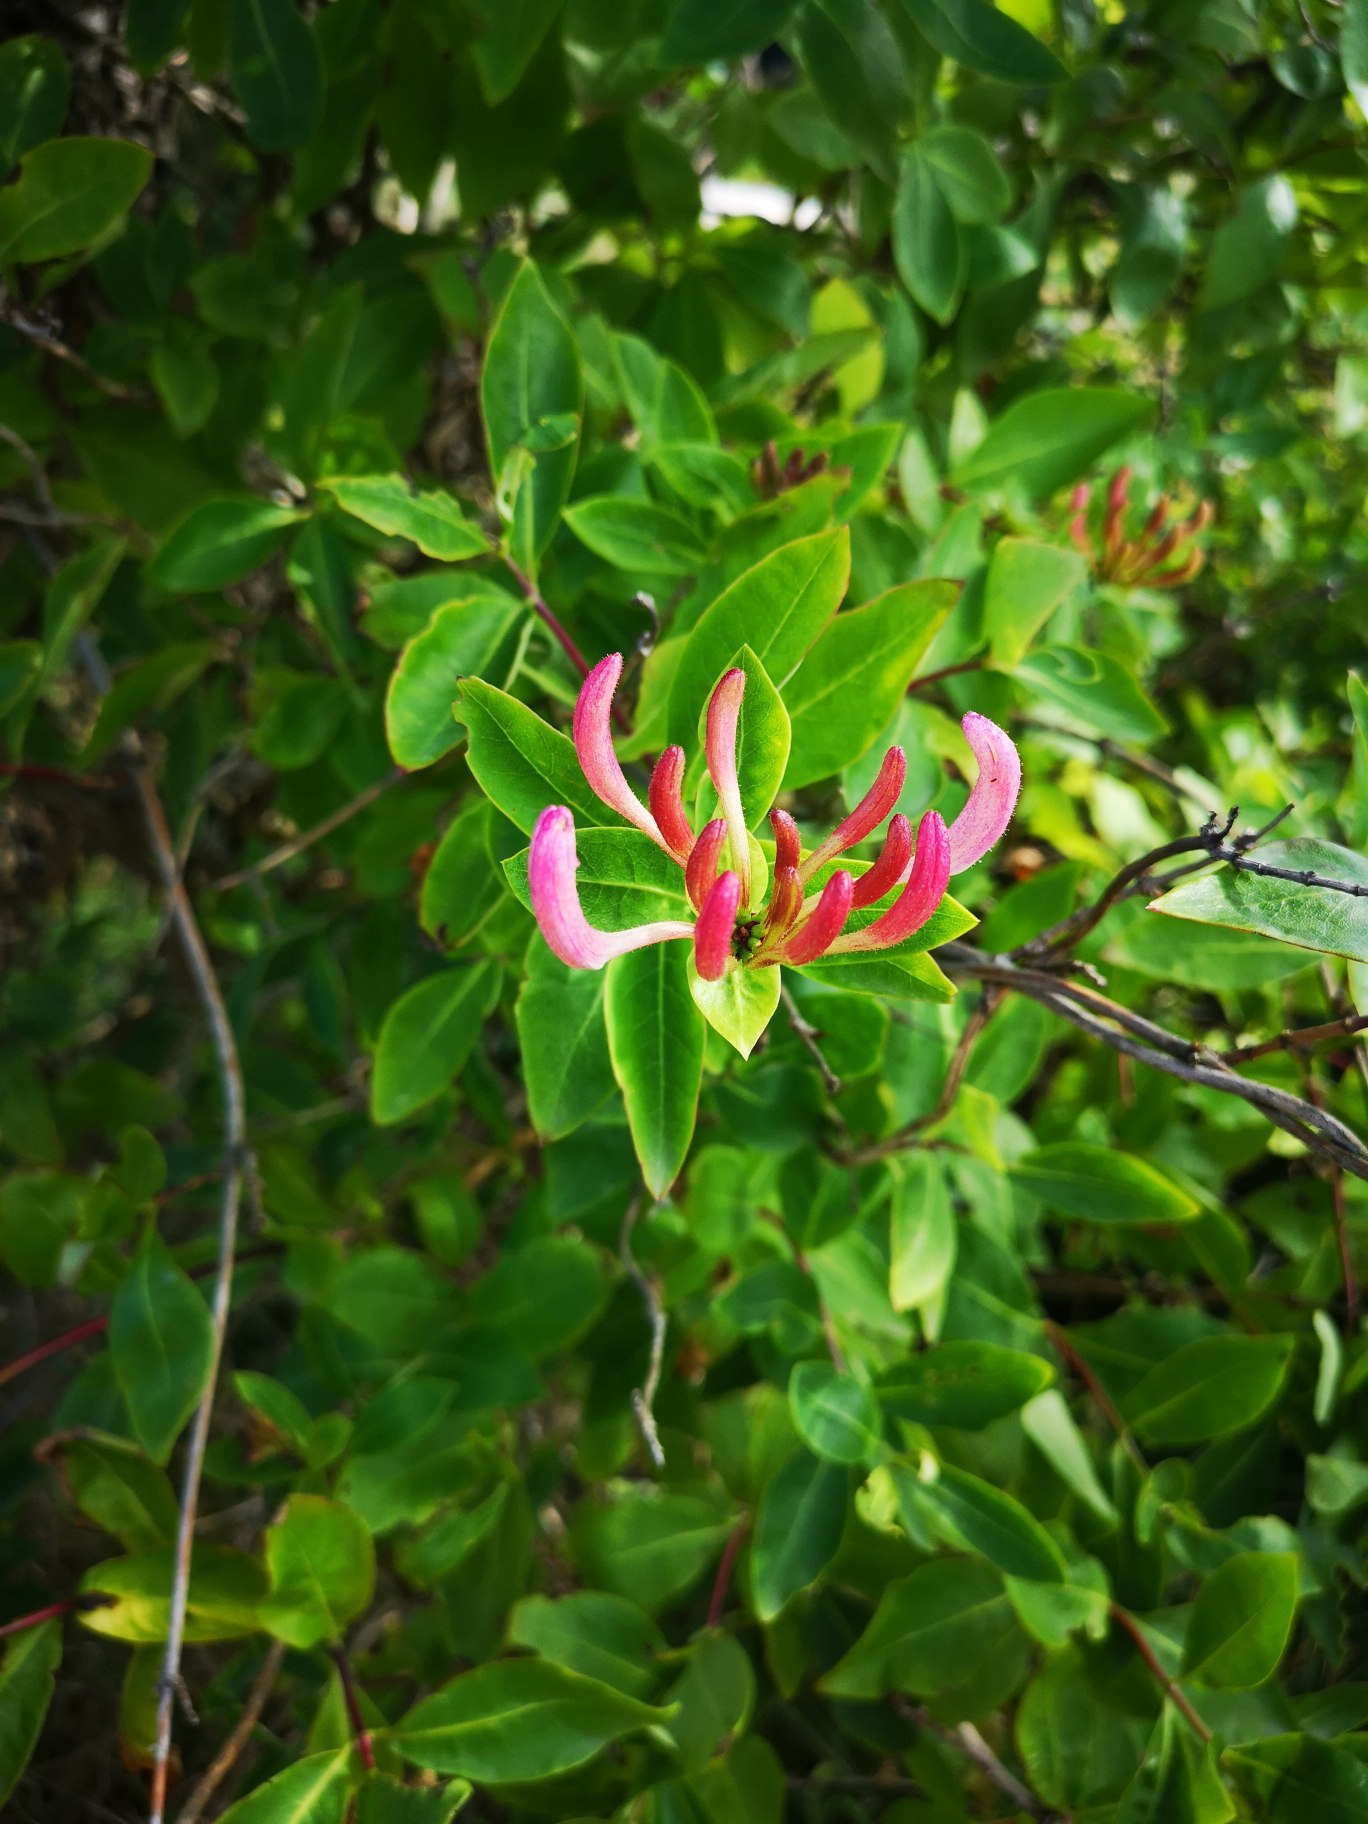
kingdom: Plantae
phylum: Tracheophyta
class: Magnoliopsida
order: Dipsacales
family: Caprifoliaceae
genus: Lonicera
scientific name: Lonicera periclymenum
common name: Almindelig gedeblad
